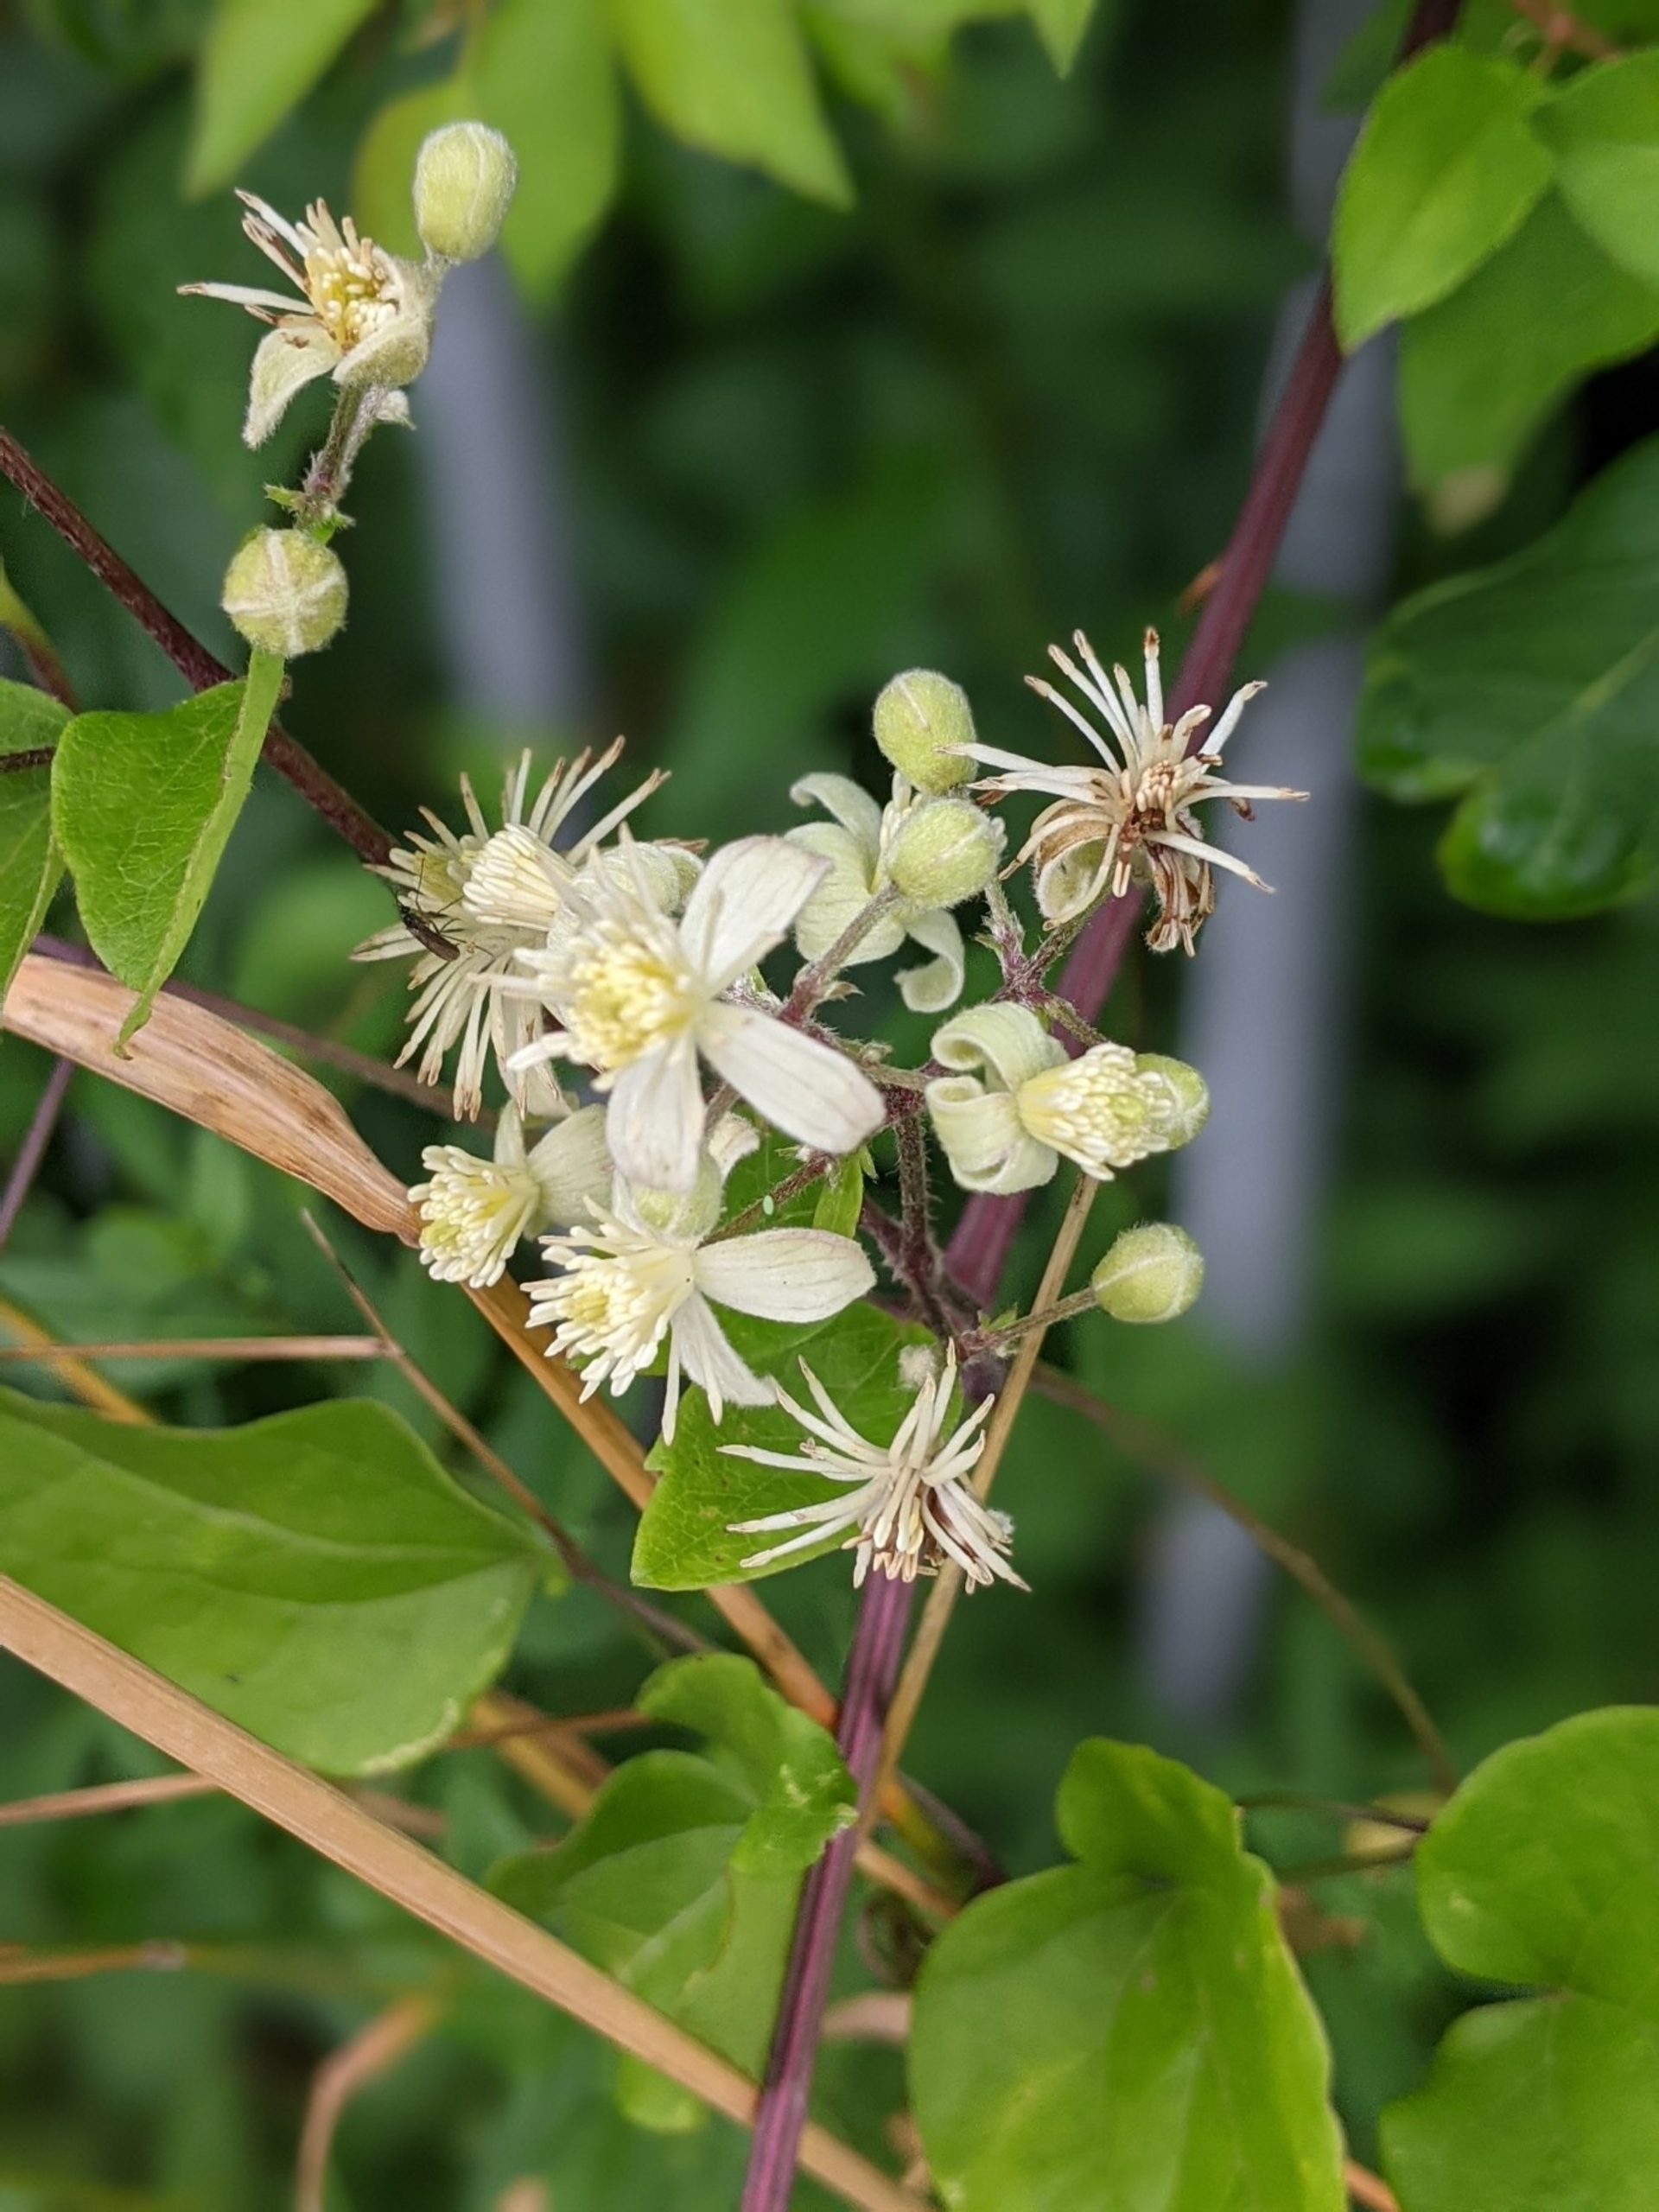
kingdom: Plantae
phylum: Tracheophyta
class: Magnoliopsida
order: Ranunculales
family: Ranunculaceae
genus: Clematis
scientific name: Clematis vitalba
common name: Skovranke
